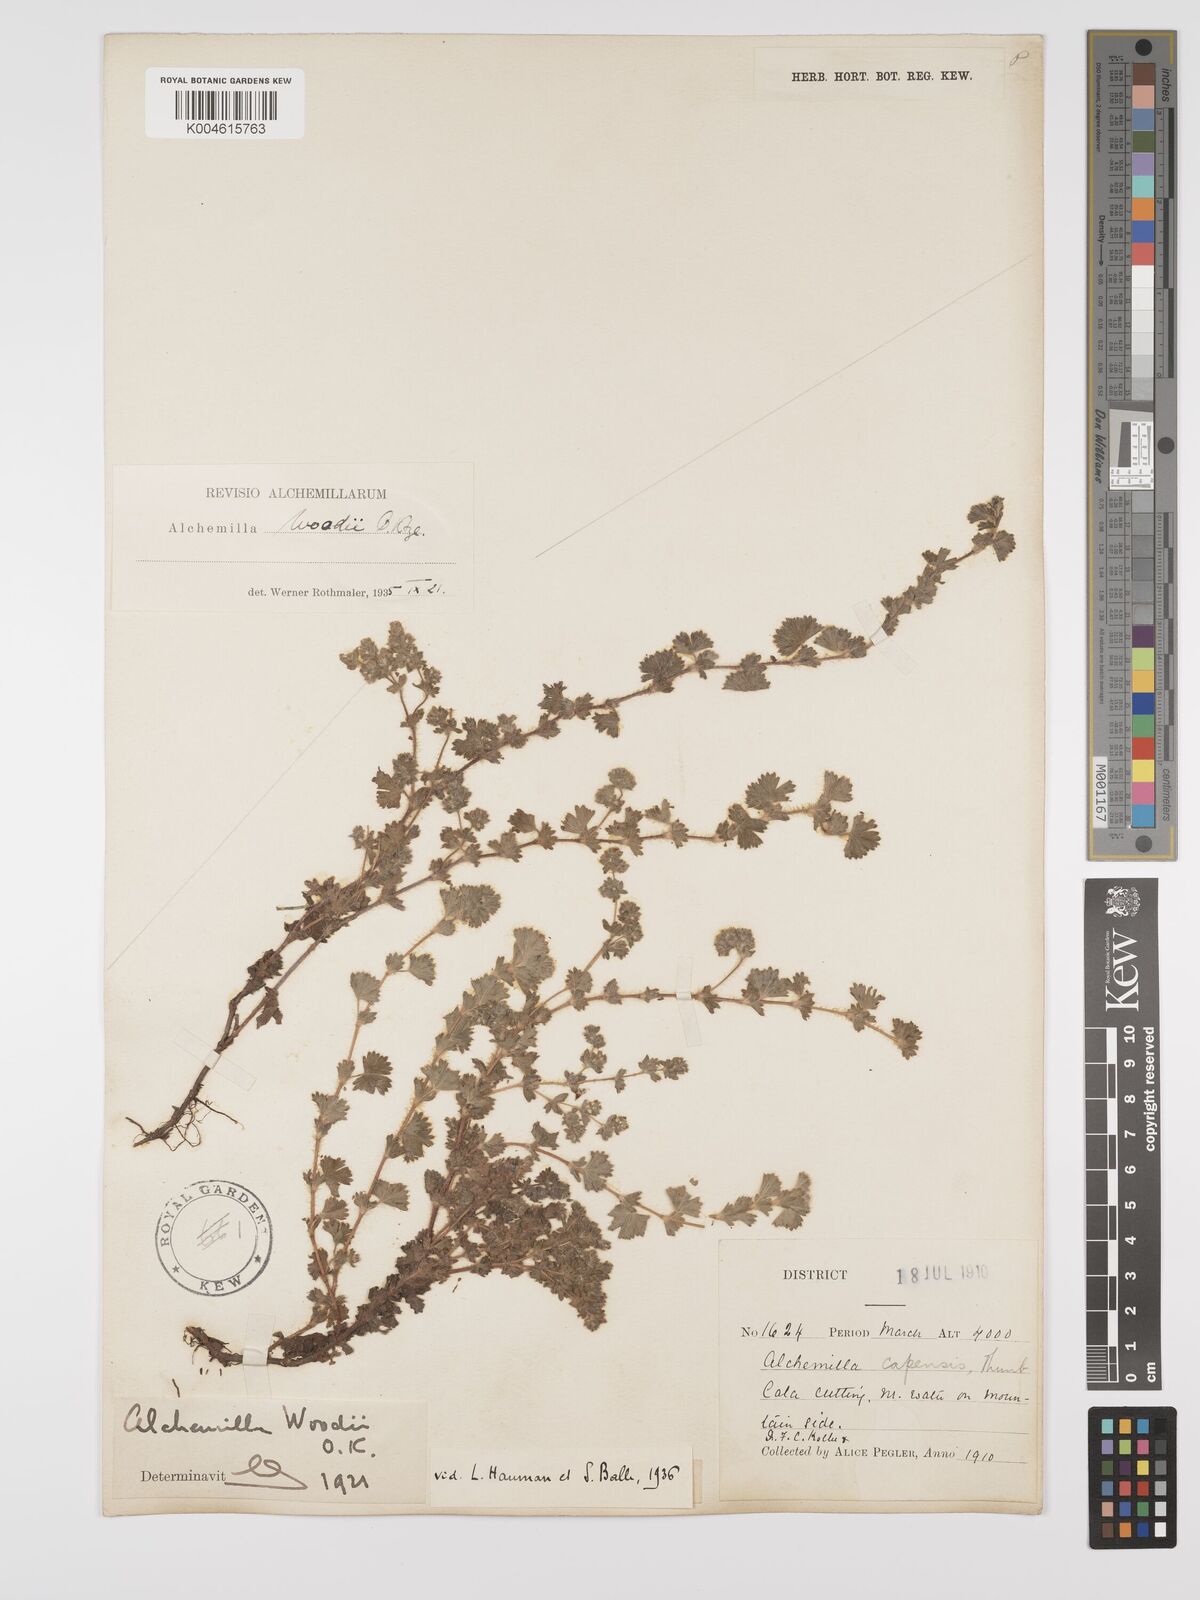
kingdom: Plantae
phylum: Tracheophyta
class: Magnoliopsida
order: Rosales
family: Rosaceae
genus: Alchemilla
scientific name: Alchemilla woodii
